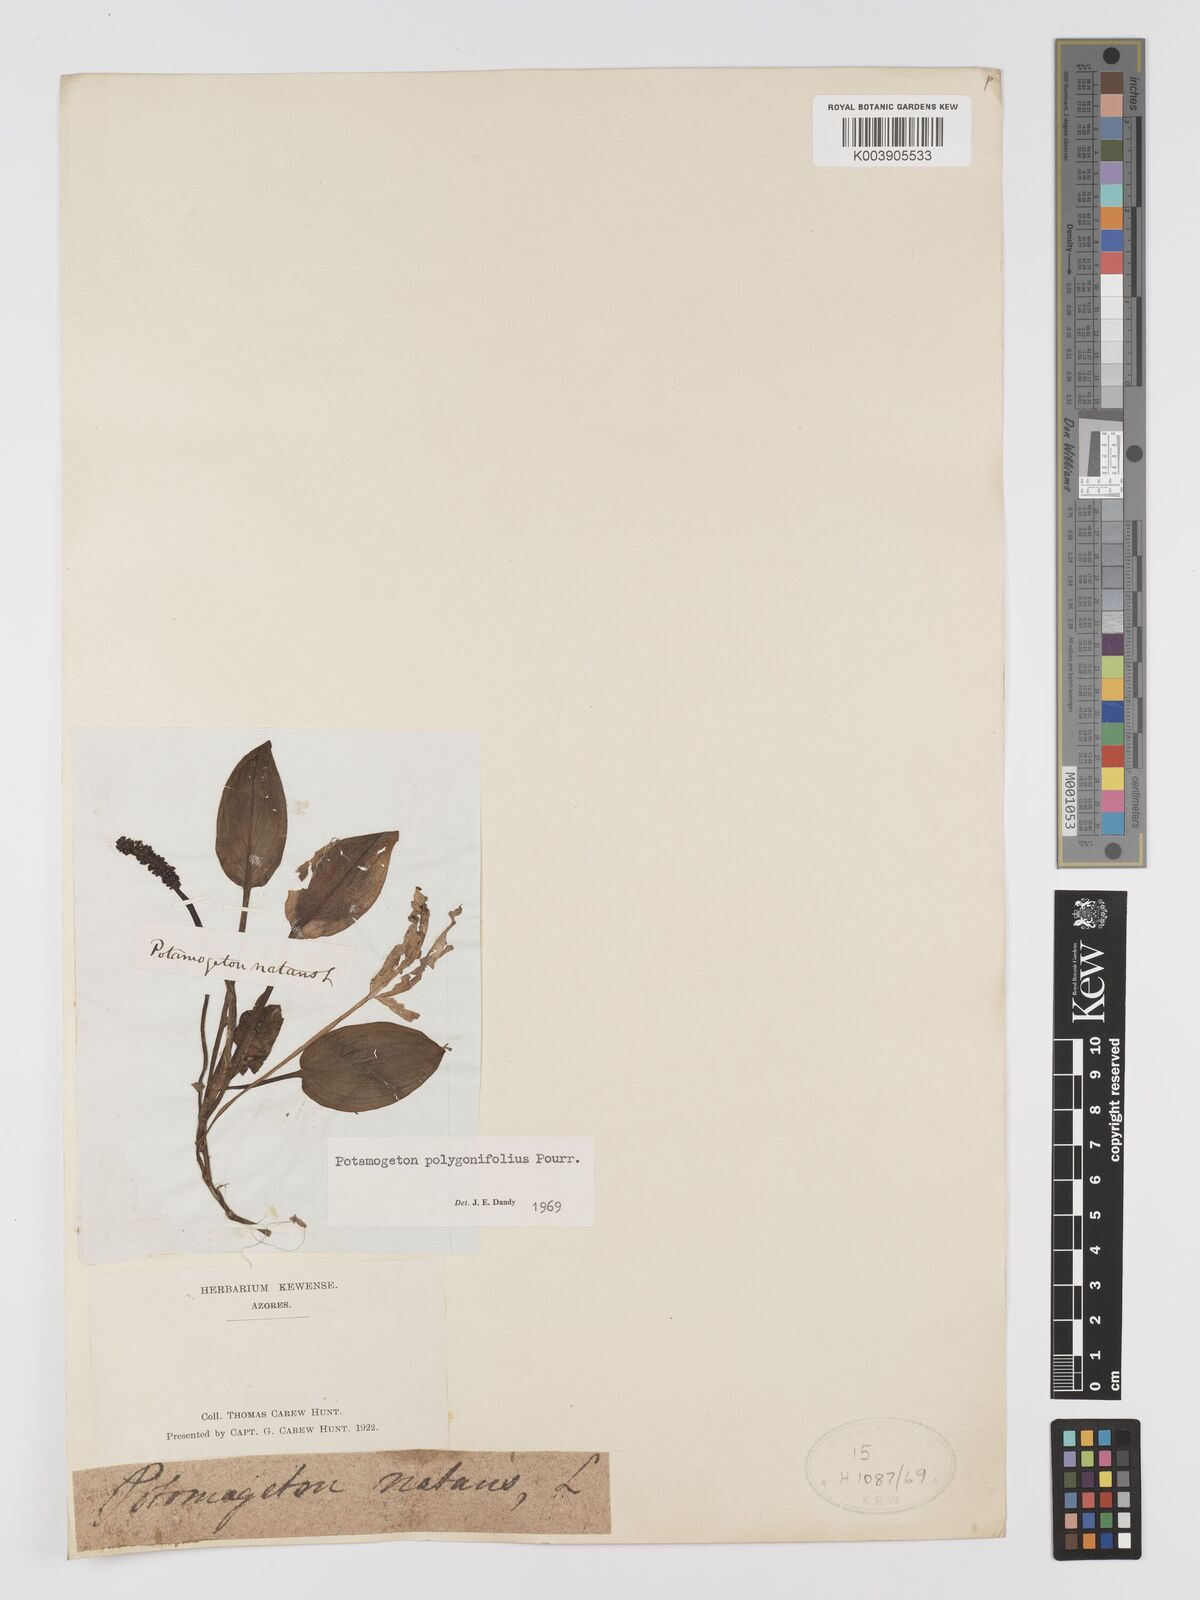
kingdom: Plantae
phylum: Tracheophyta
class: Liliopsida
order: Alismatales
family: Potamogetonaceae
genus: Potamogeton
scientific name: Potamogeton polygonifolius
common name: Bog pondweed
